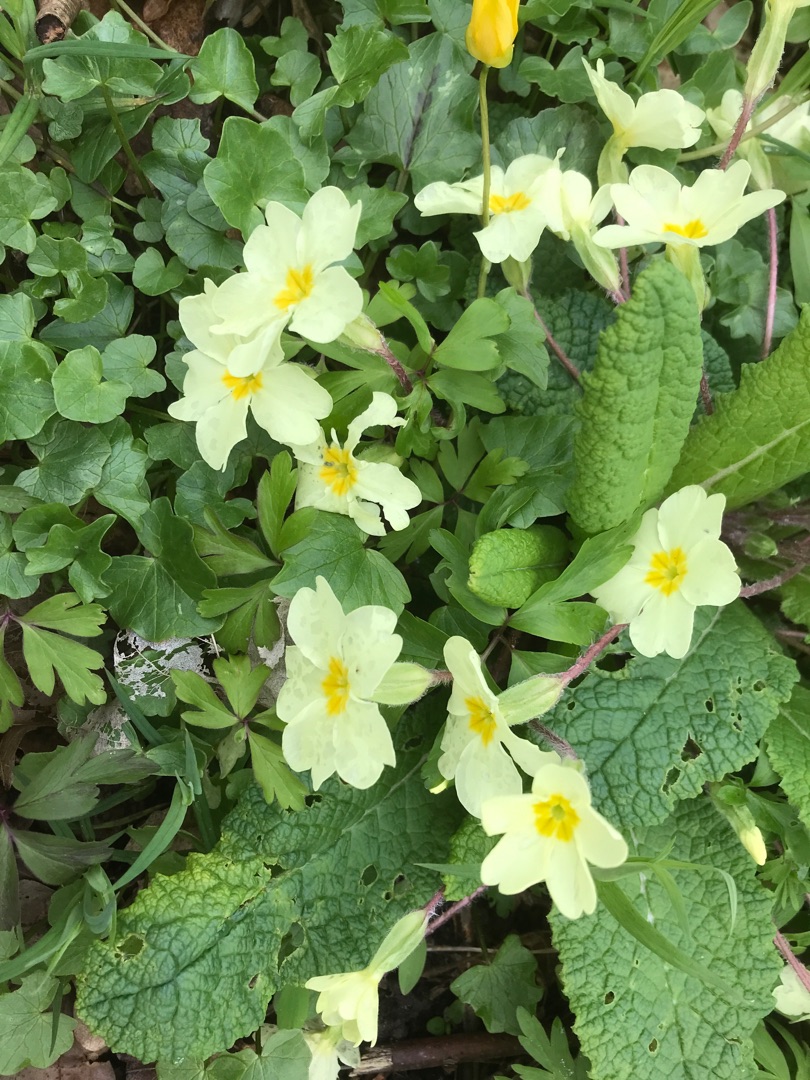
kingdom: Plantae
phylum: Tracheophyta
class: Magnoliopsida
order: Ericales
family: Primulaceae
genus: Primula
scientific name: Primula vulgaris
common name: Storblomstret kodriver
